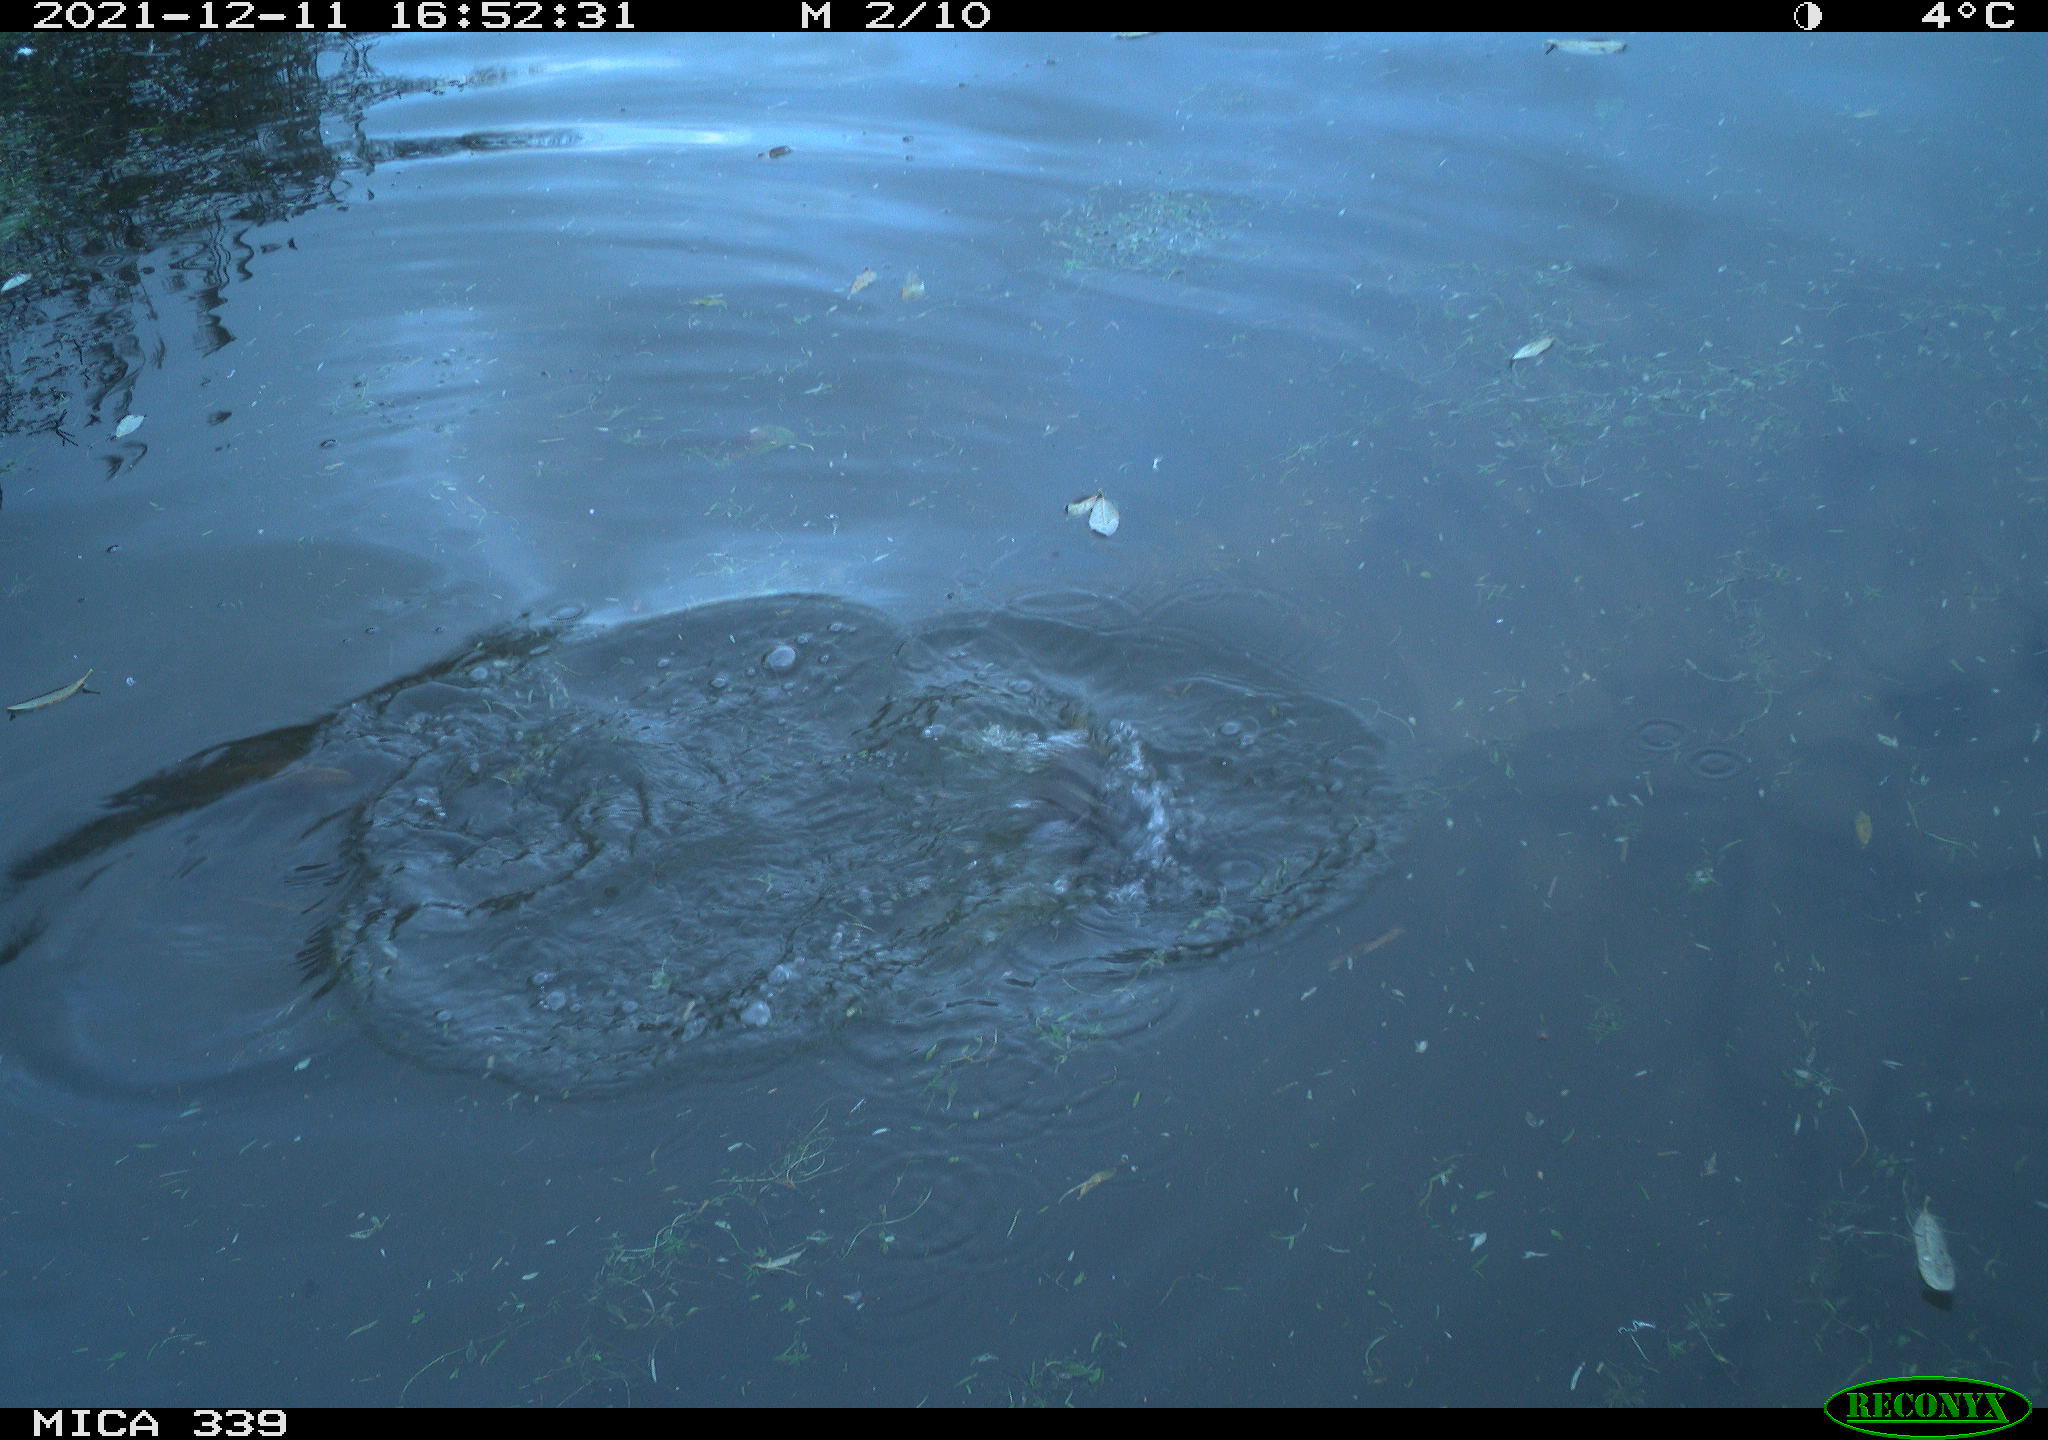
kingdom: Animalia
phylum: Chordata
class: Aves
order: Suliformes
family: Phalacrocoracidae
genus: Phalacrocorax
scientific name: Phalacrocorax carbo
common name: Great cormorant
